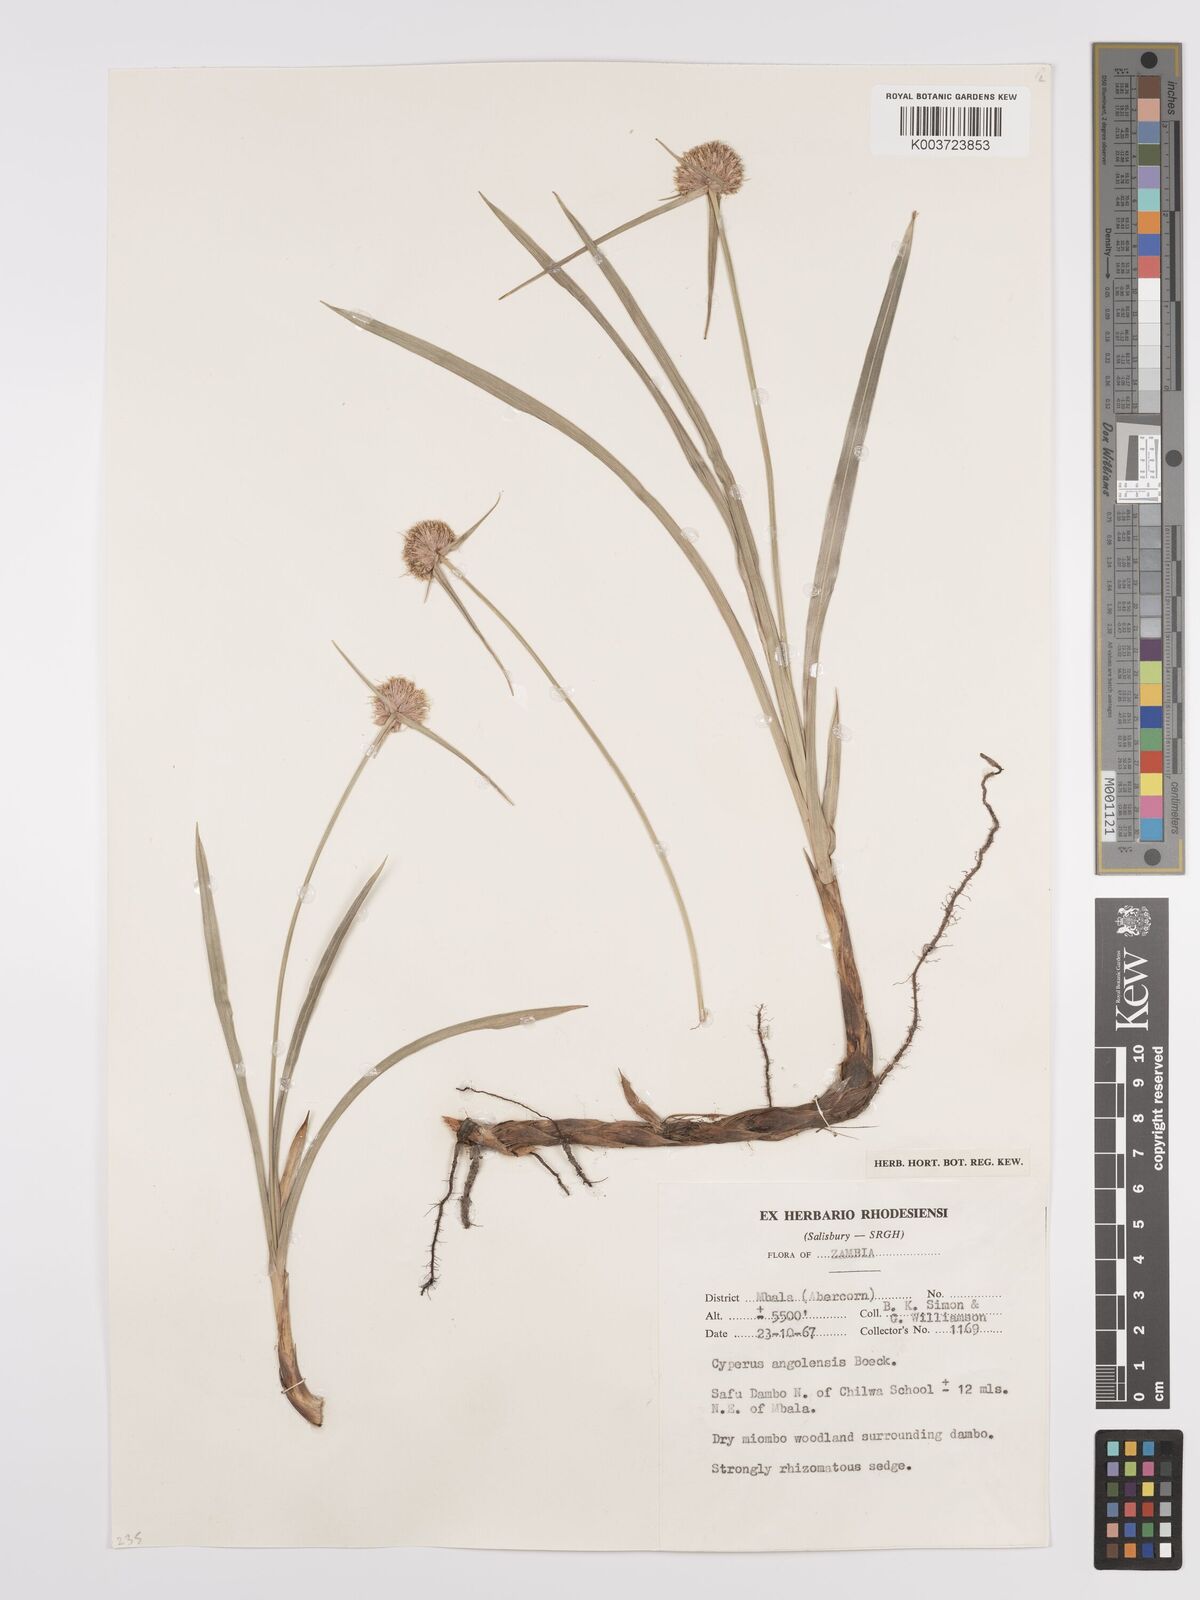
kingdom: Plantae
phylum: Tracheophyta
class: Liliopsida
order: Poales
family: Cyperaceae
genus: Cyperus
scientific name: Cyperus angolensis
